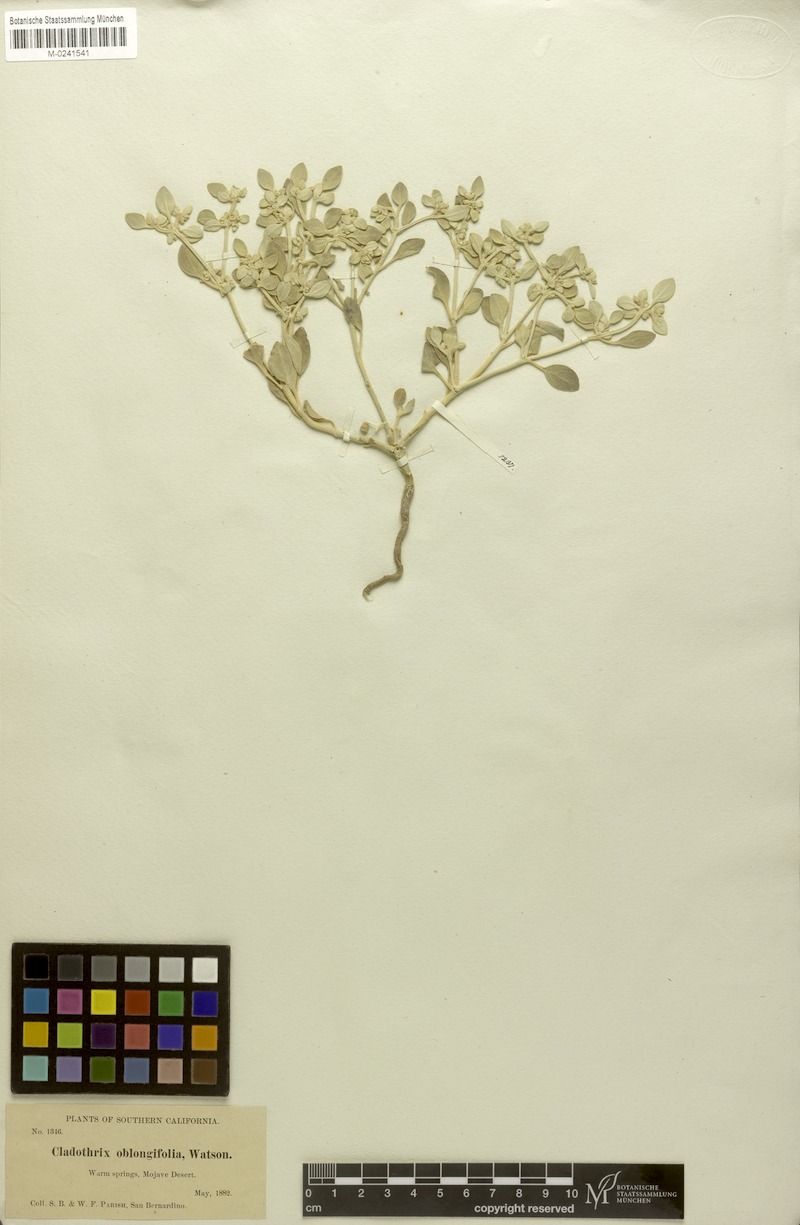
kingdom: Plantae
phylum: Tracheophyta
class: Magnoliopsida
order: Caryophyllales
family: Amaranthaceae
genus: Tidestromia
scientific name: Tidestromia suffruticosa
